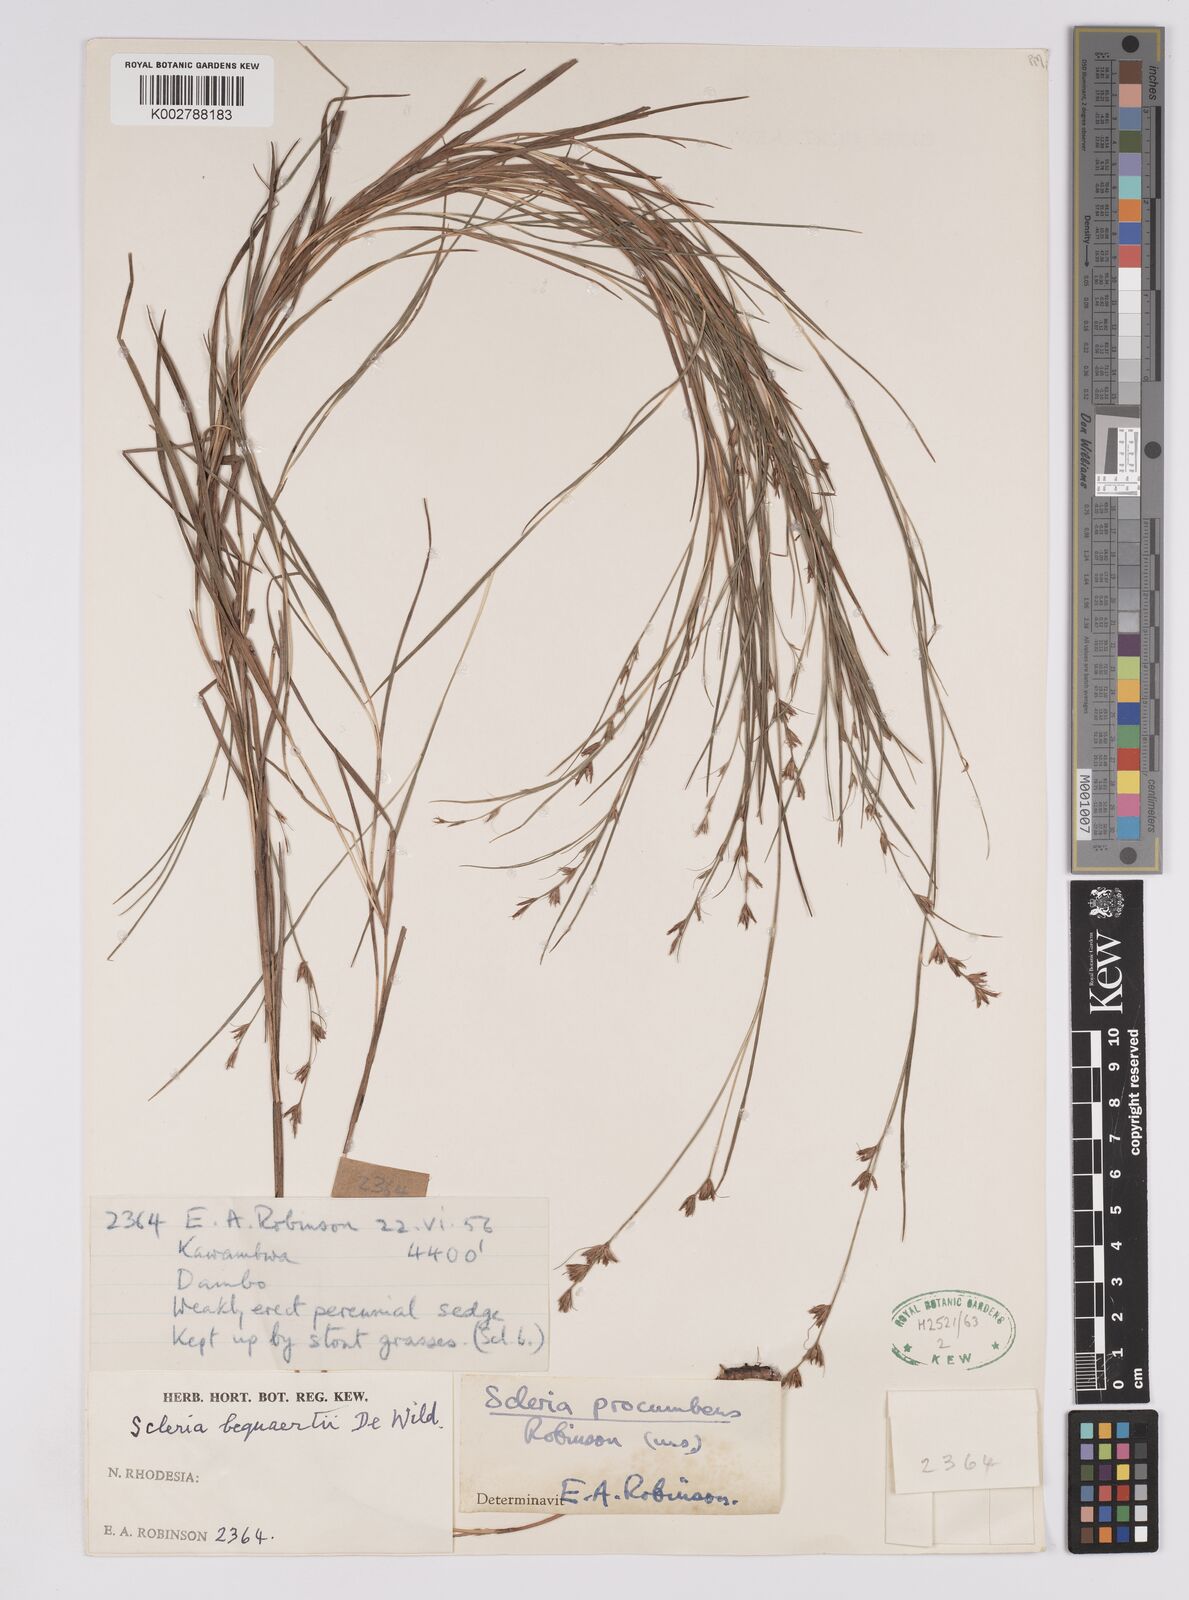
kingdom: Plantae
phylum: Tracheophyta
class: Liliopsida
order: Poales
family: Cyperaceae
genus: Scleria
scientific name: Scleria procumbens
